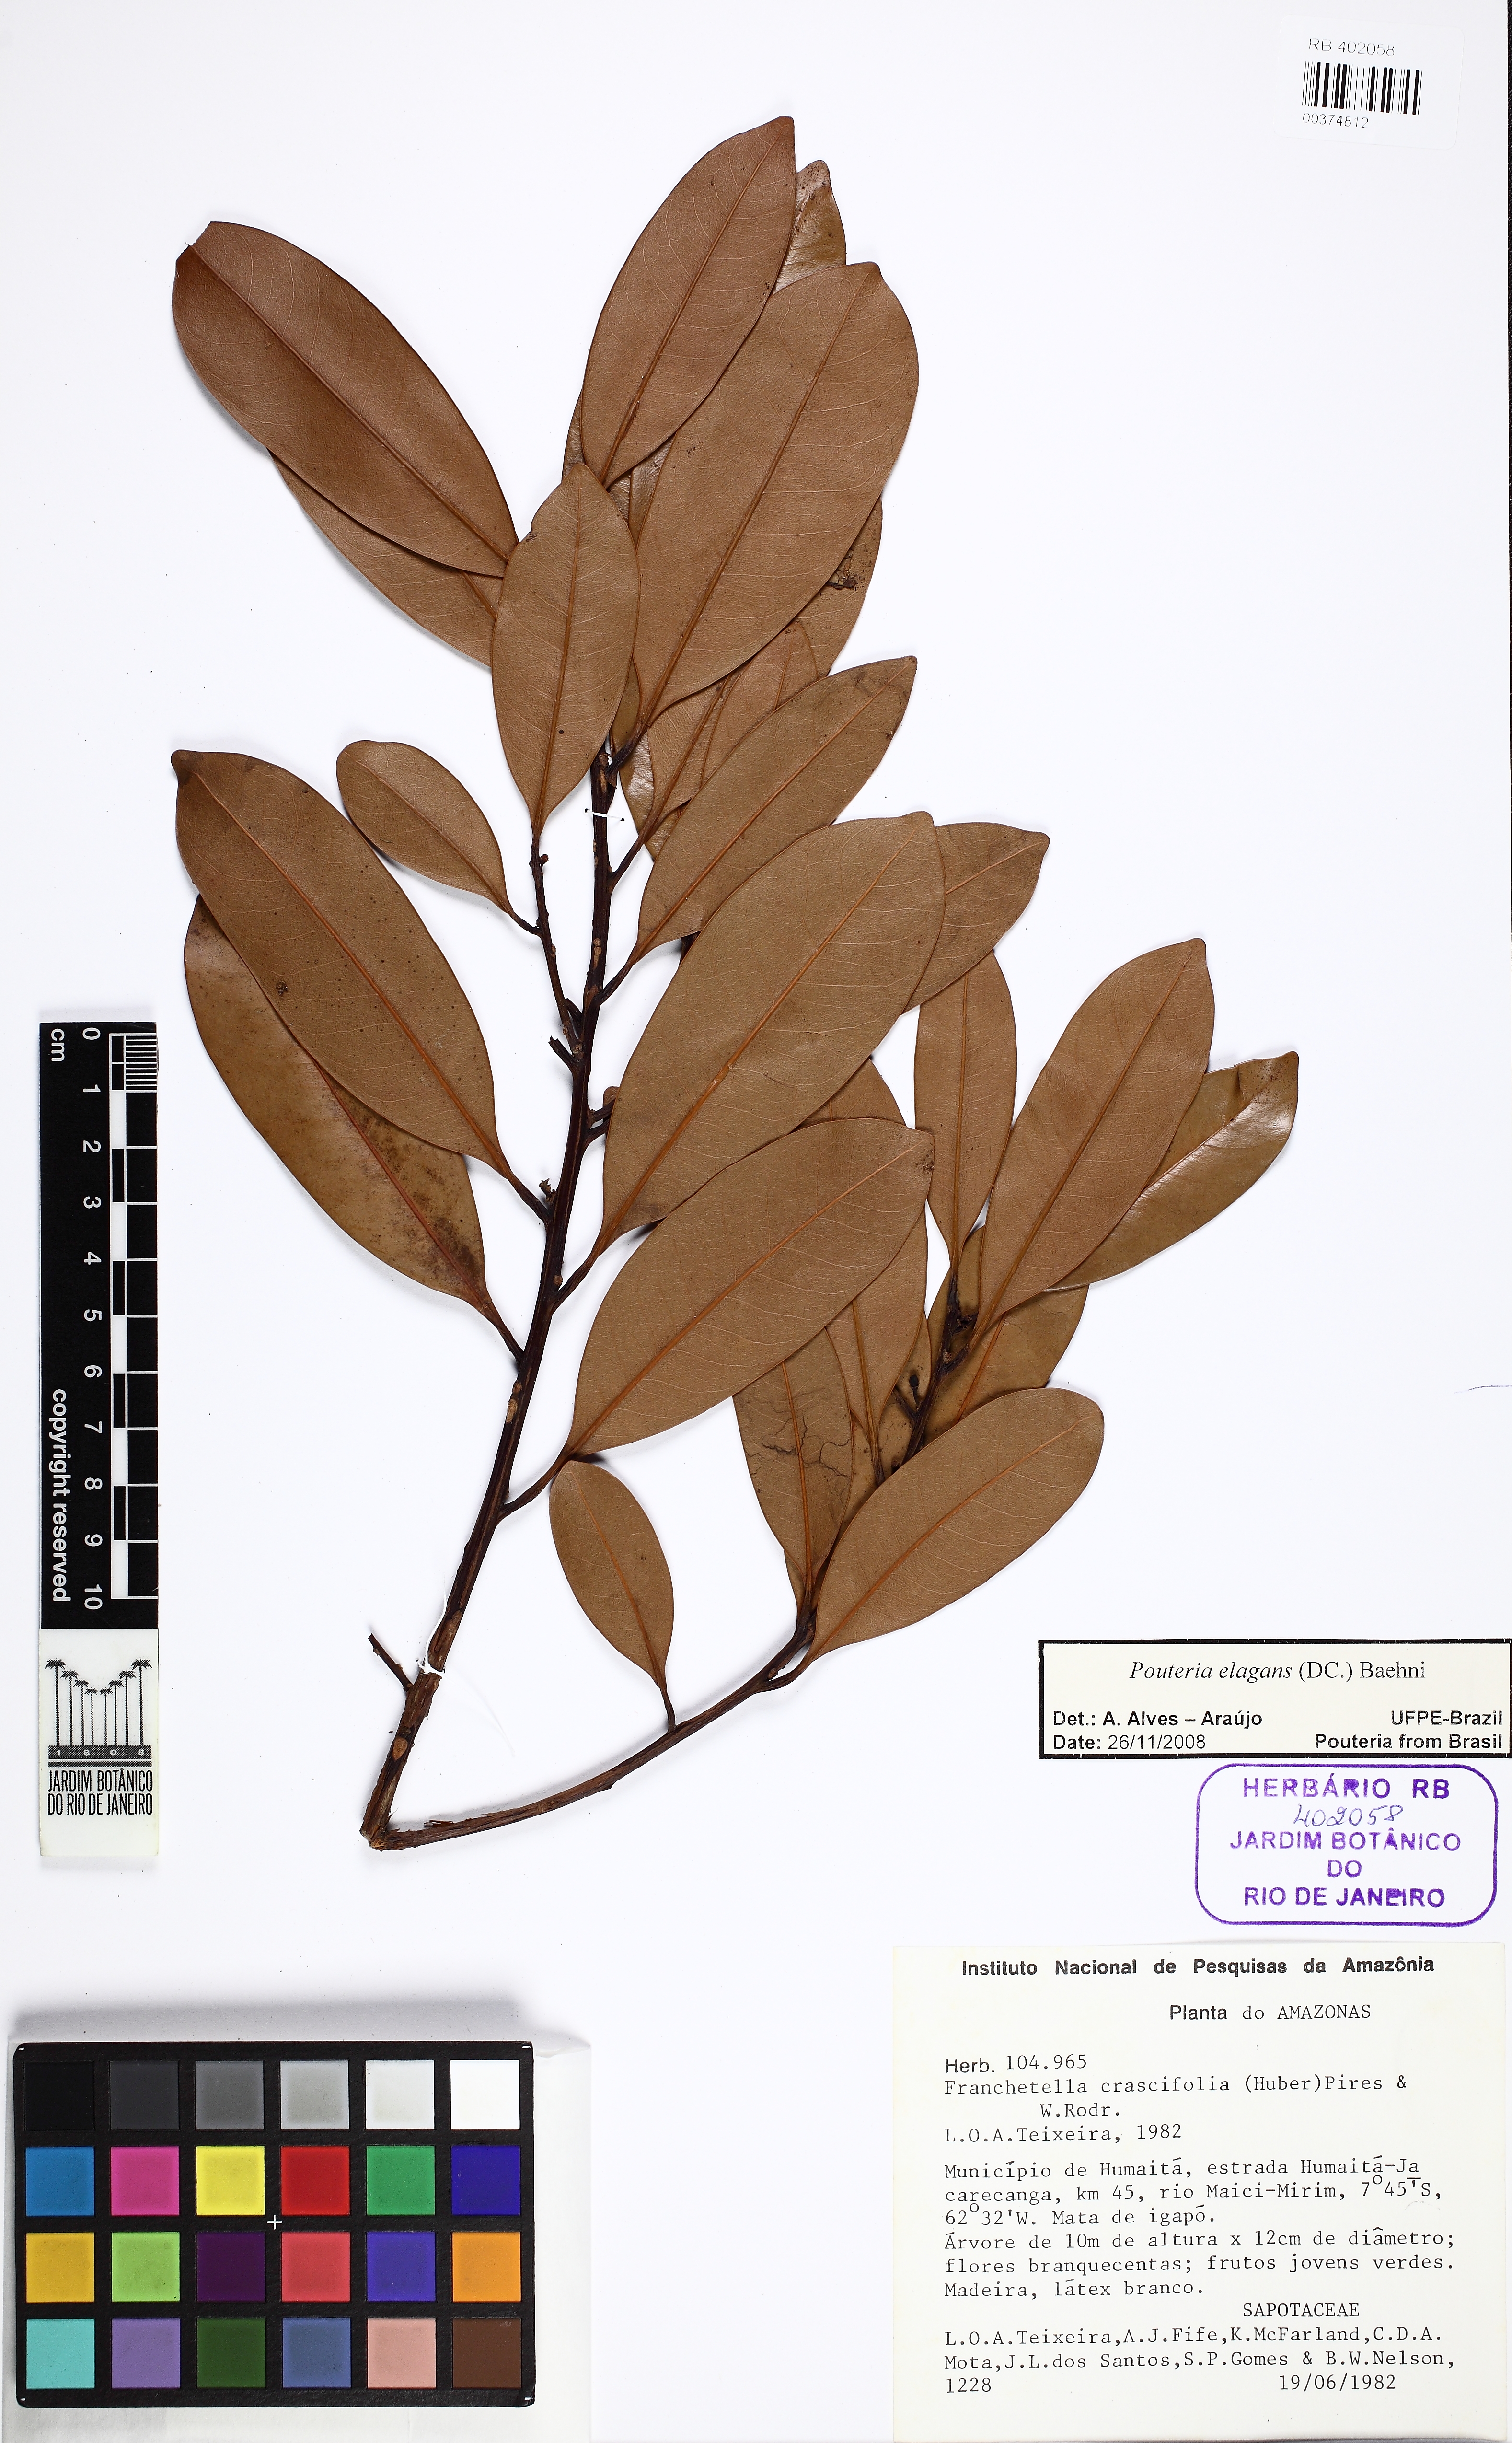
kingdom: Plantae
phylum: Tracheophyta
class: Magnoliopsida
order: Ericales
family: Sapotaceae
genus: Pouteria
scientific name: Pouteria elegans
